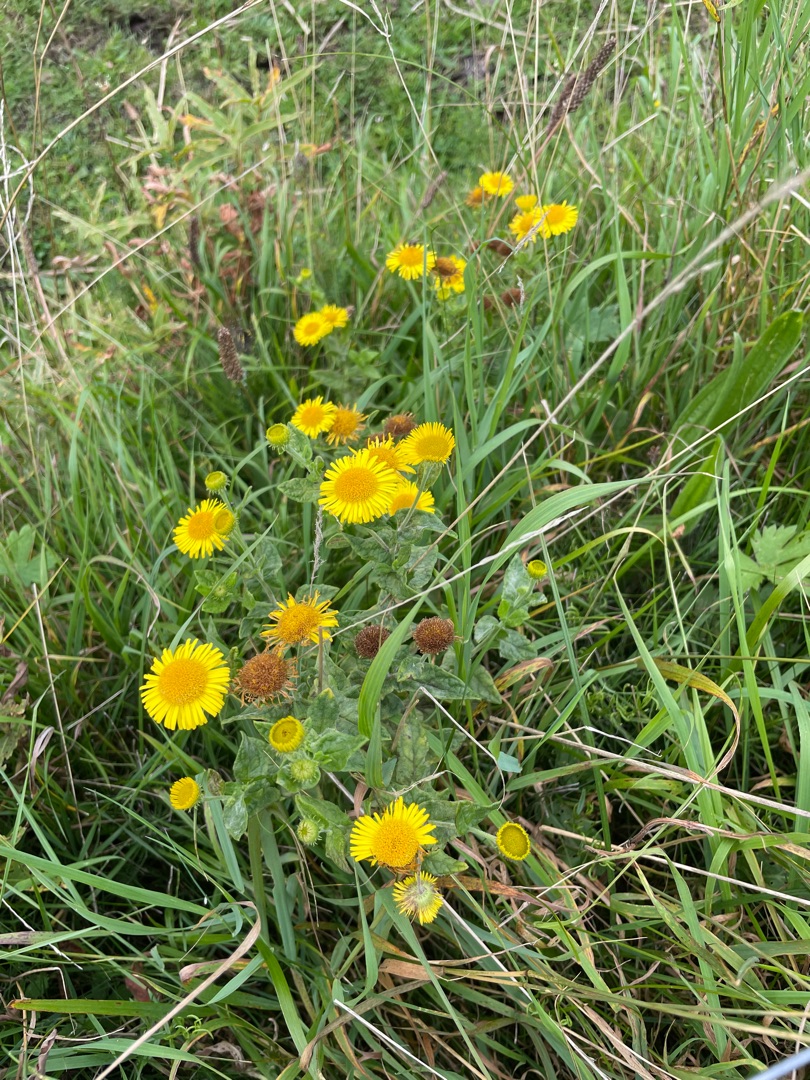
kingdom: Plantae
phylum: Tracheophyta
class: Magnoliopsida
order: Asterales
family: Asteraceae
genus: Pulicaria
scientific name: Pulicaria dysenterica
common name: Strand-loppeurt
